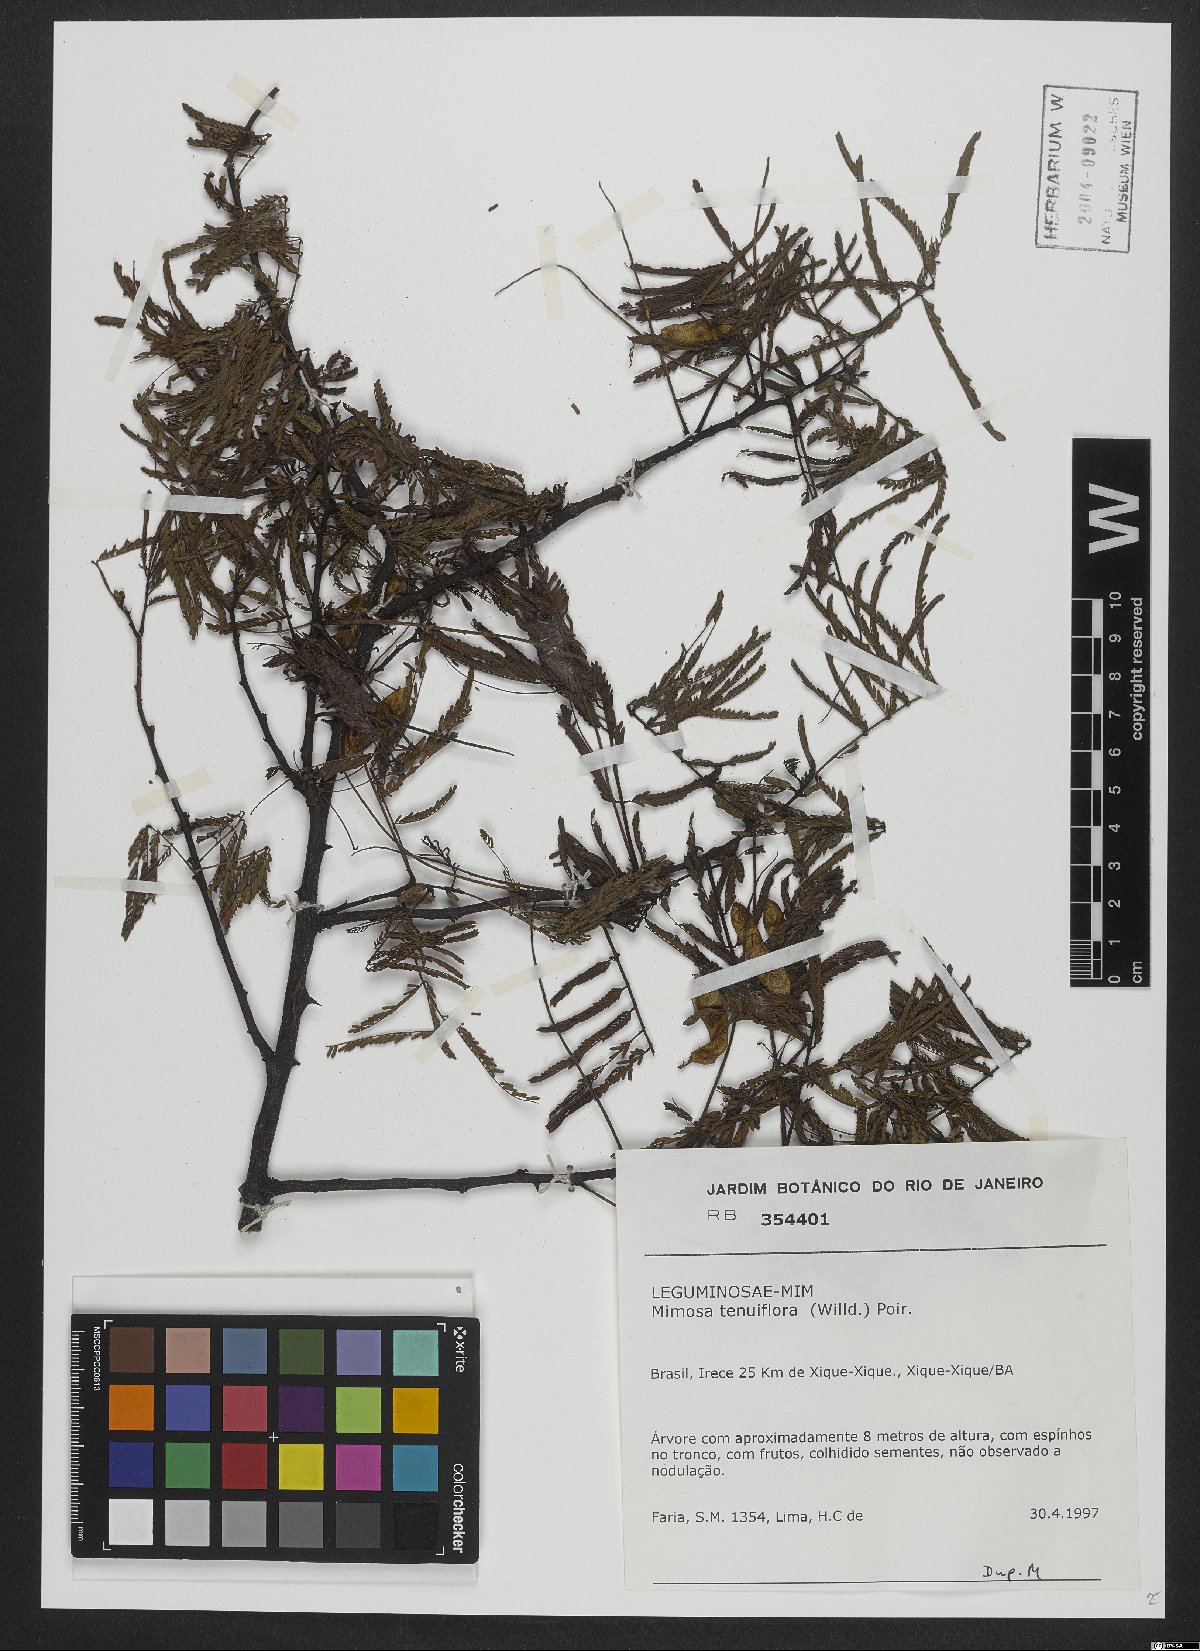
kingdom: Plantae
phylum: Tracheophyta
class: Magnoliopsida
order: Fabales
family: Fabaceae
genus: Mimosa
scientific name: Mimosa tenuiflora
